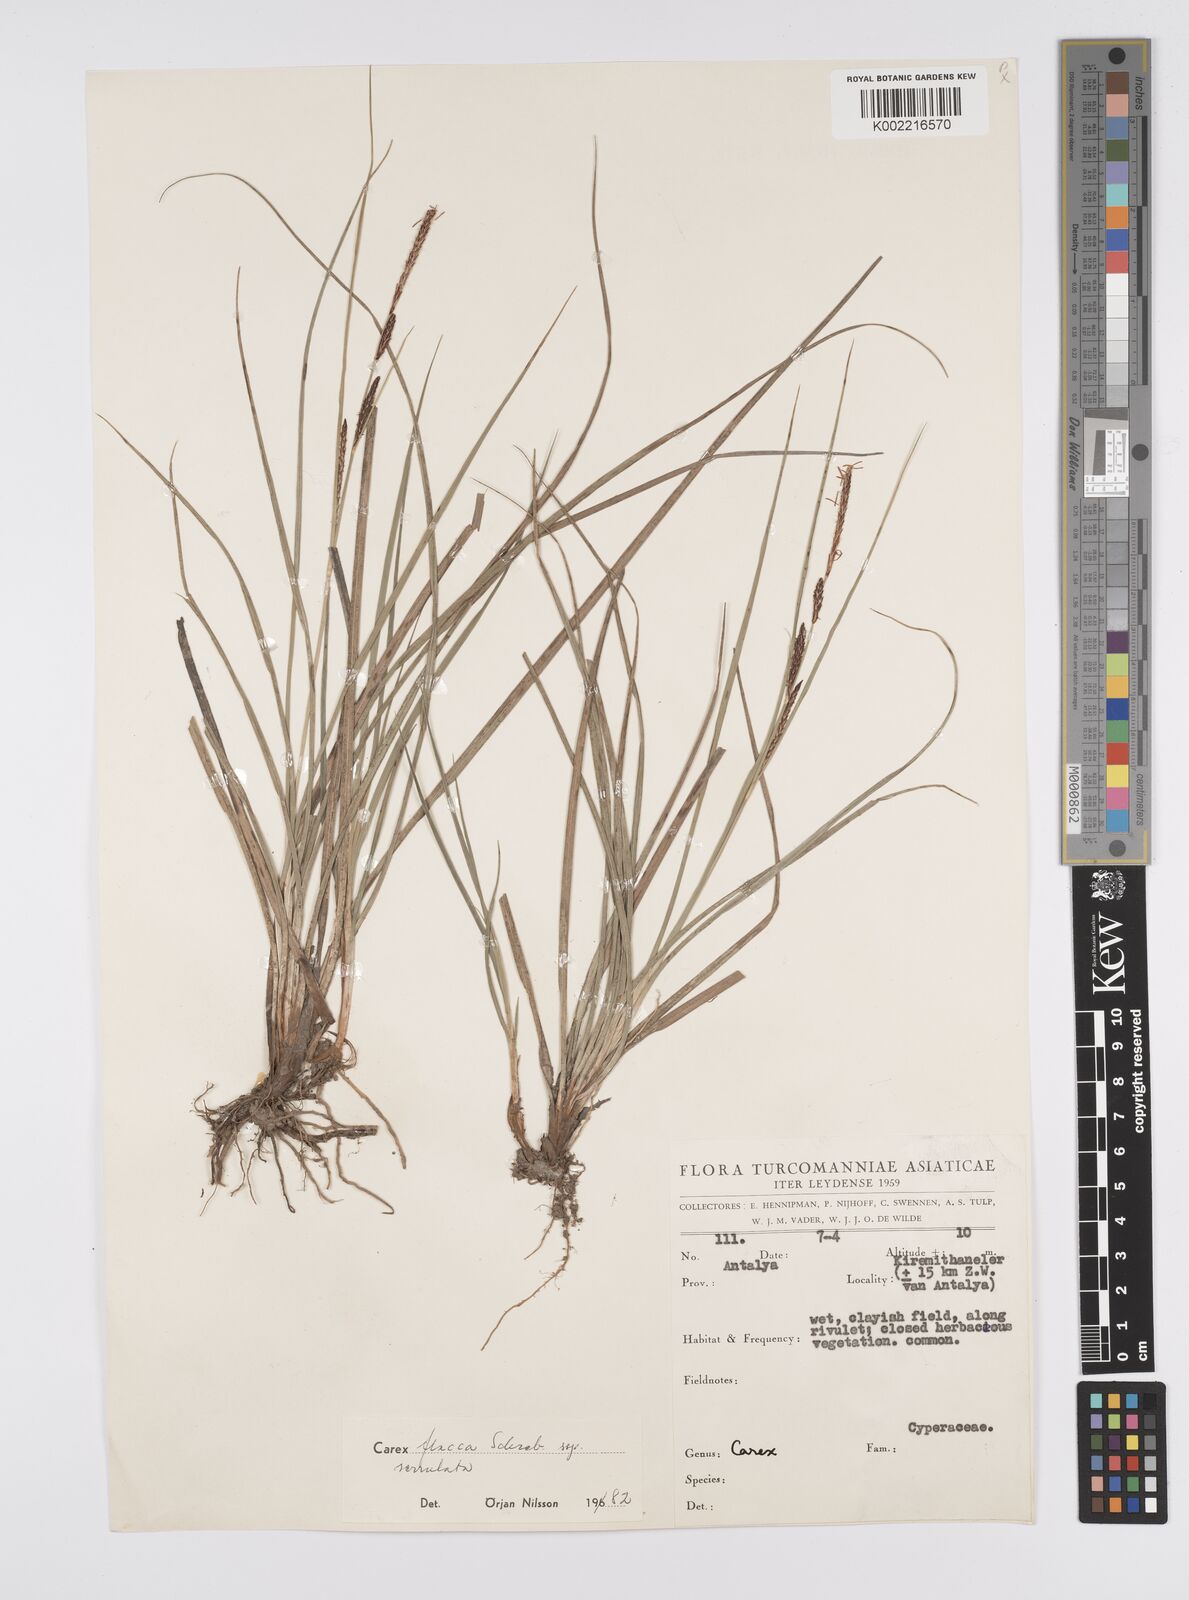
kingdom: Plantae
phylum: Tracheophyta
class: Liliopsida
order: Poales
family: Cyperaceae
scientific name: Cyperaceae
